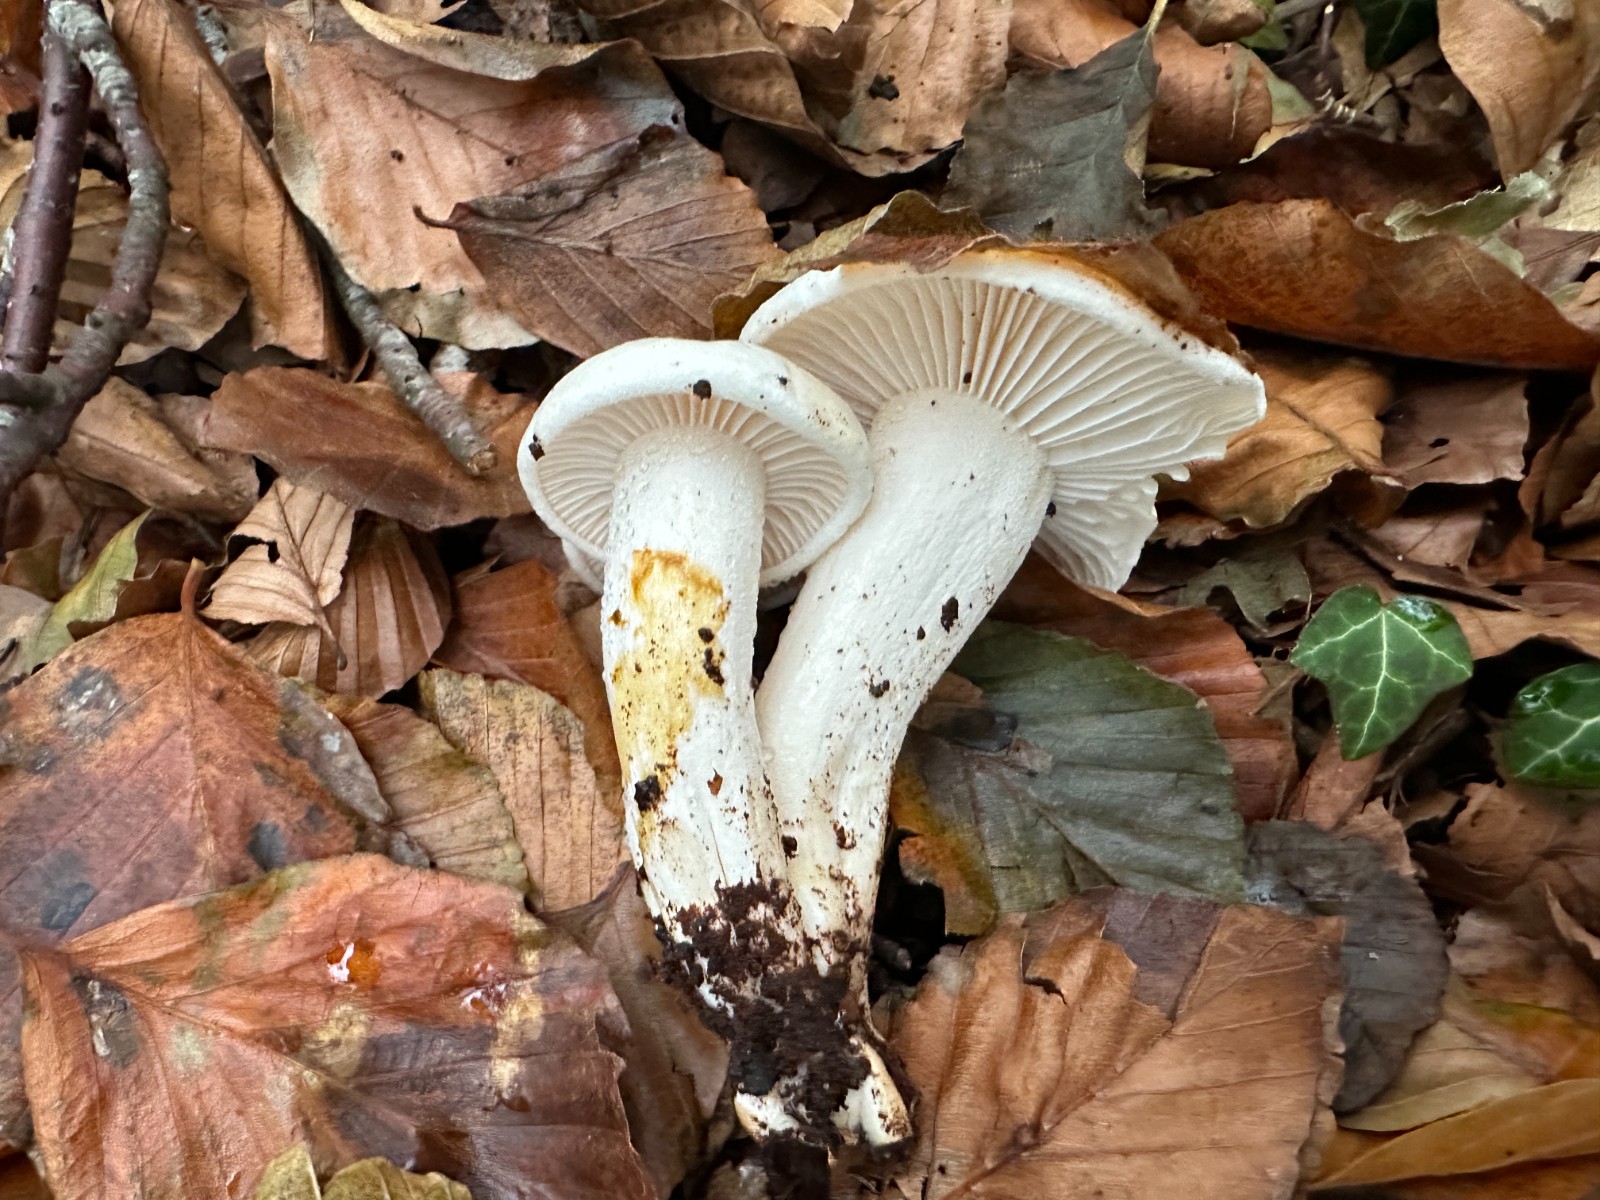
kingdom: Fungi
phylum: Basidiomycota
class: Agaricomycetes
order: Agaricales
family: Hygrophoraceae
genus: Hygrophorus
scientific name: Hygrophorus discoxanthus
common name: ildelugtende sneglehat
